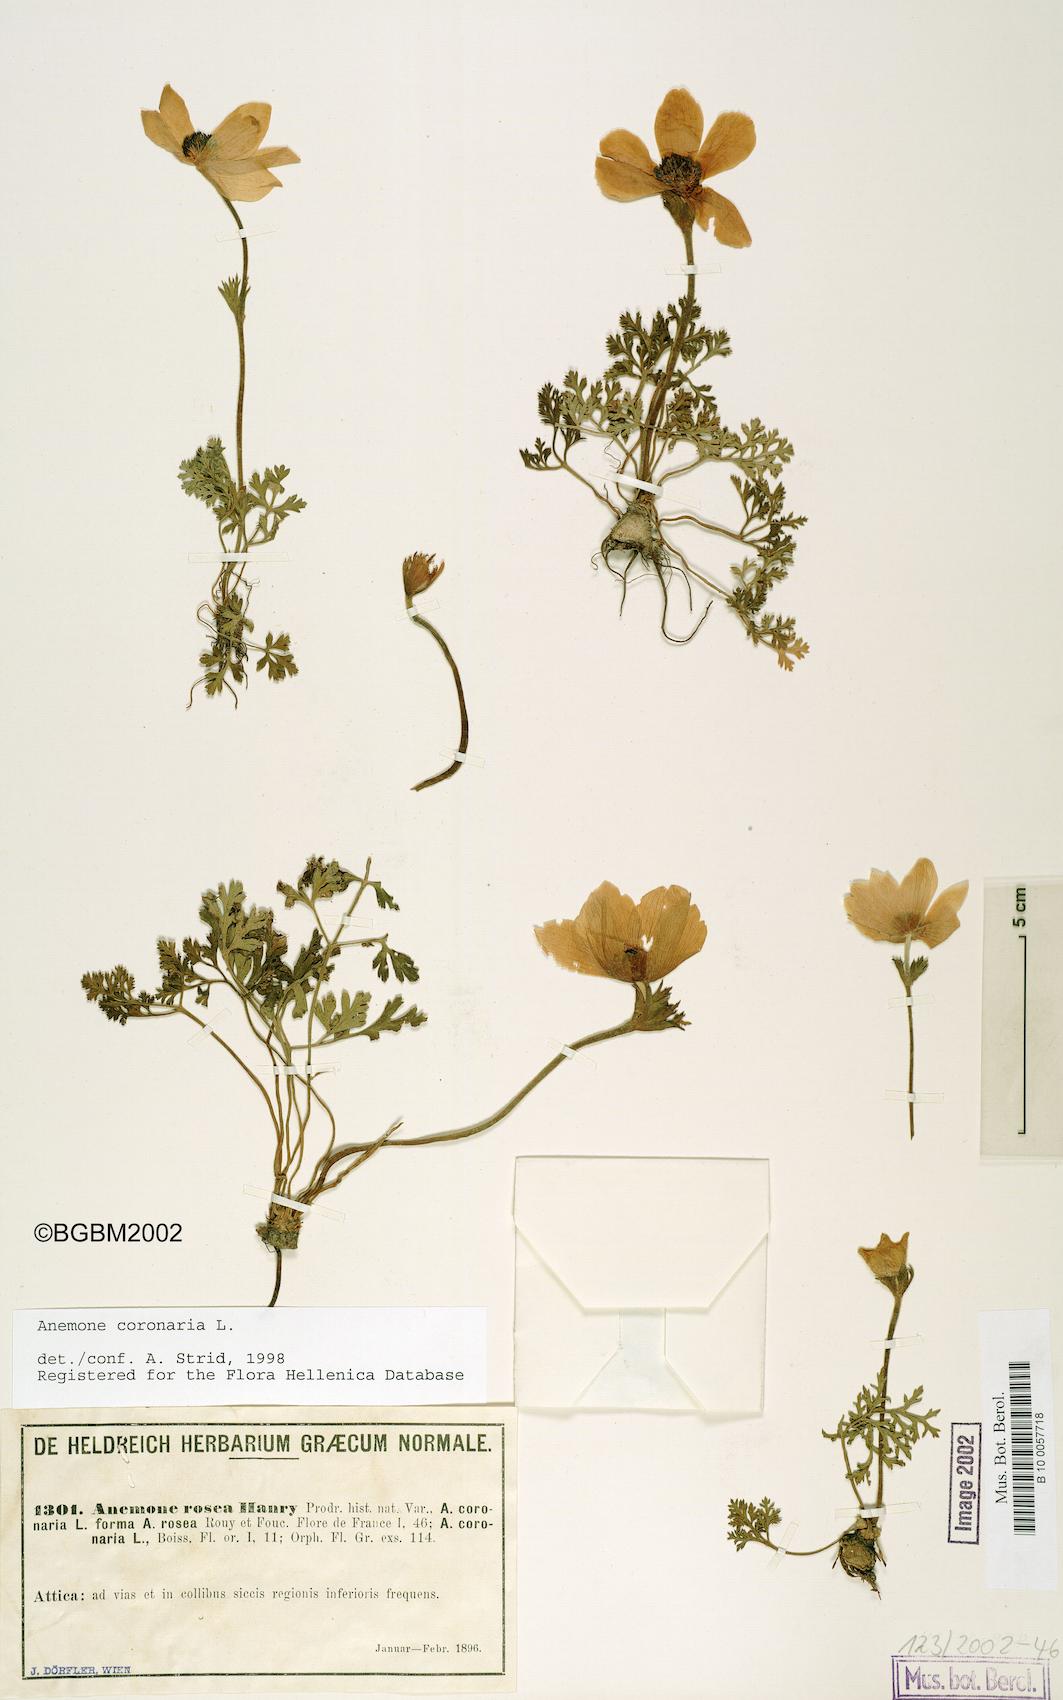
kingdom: Plantae
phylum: Tracheophyta
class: Magnoliopsida
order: Ranunculales
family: Ranunculaceae
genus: Anemone
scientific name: Anemone coronaria
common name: Poppy anemone
